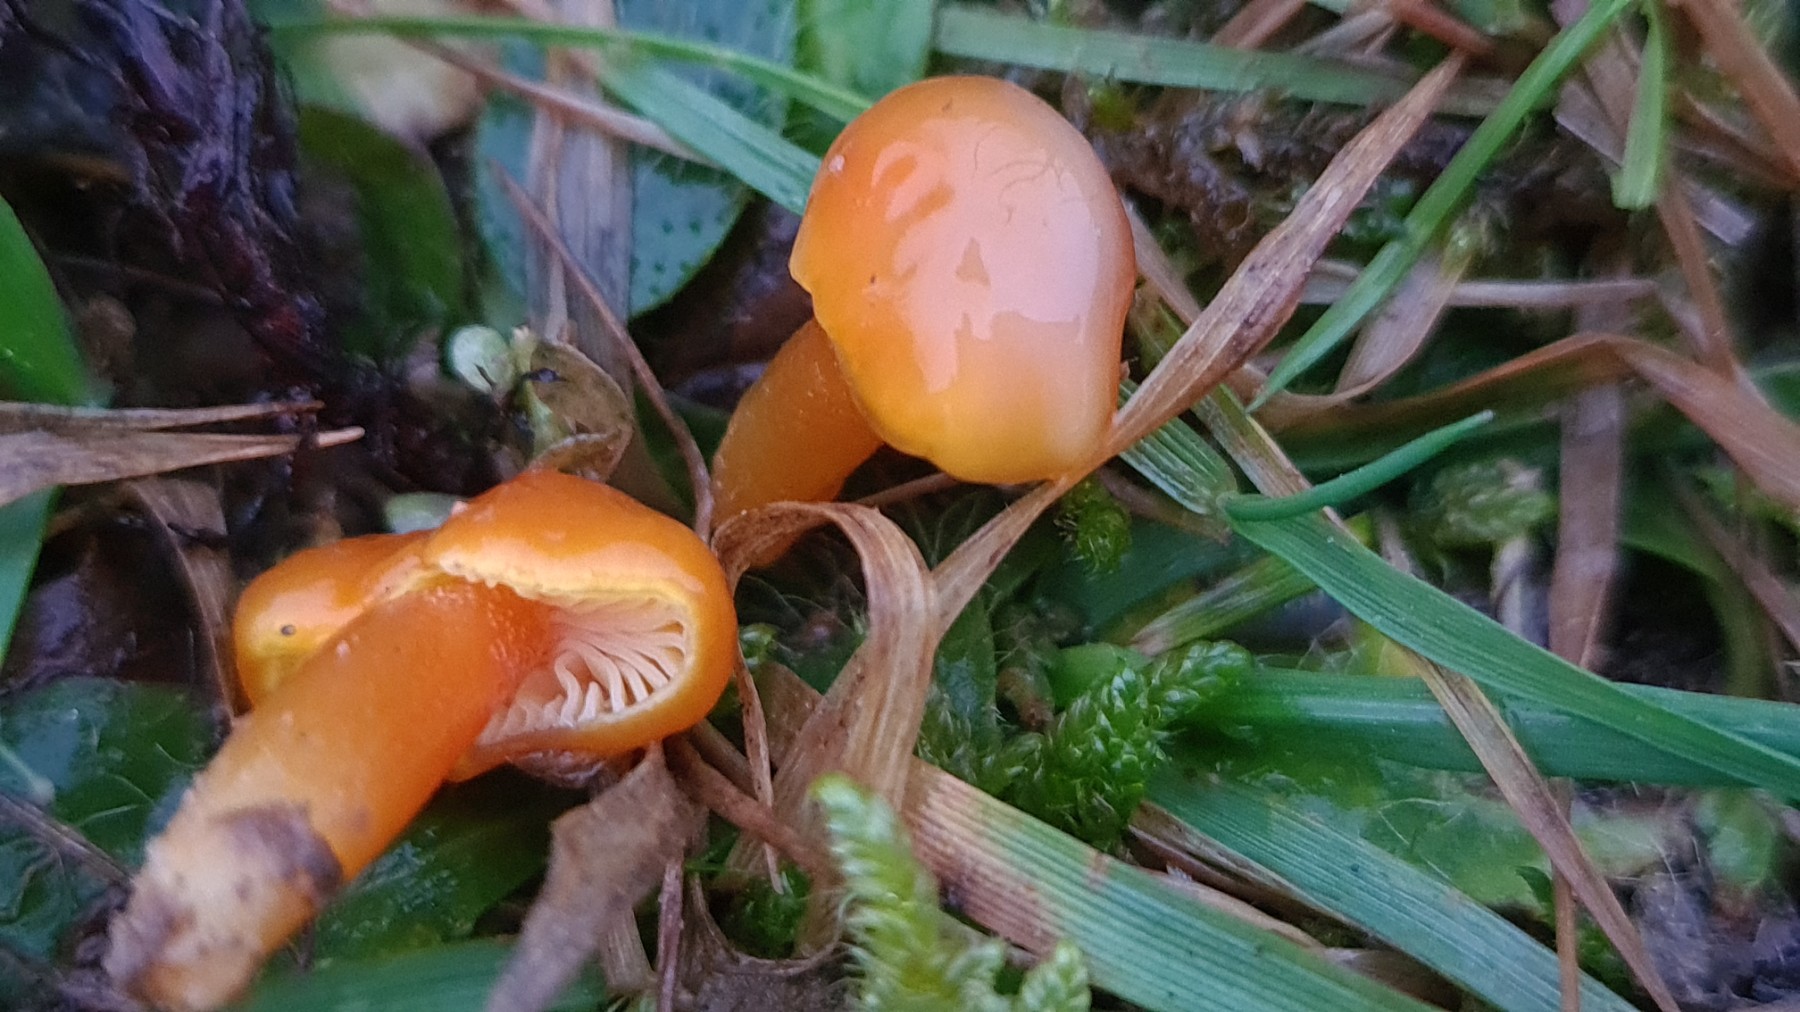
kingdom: Fungi
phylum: Basidiomycota
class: Agaricomycetes
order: Agaricales
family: Hygrophoraceae
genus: Gliophorus
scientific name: Gliophorus laetus
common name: brusk-vokshat
